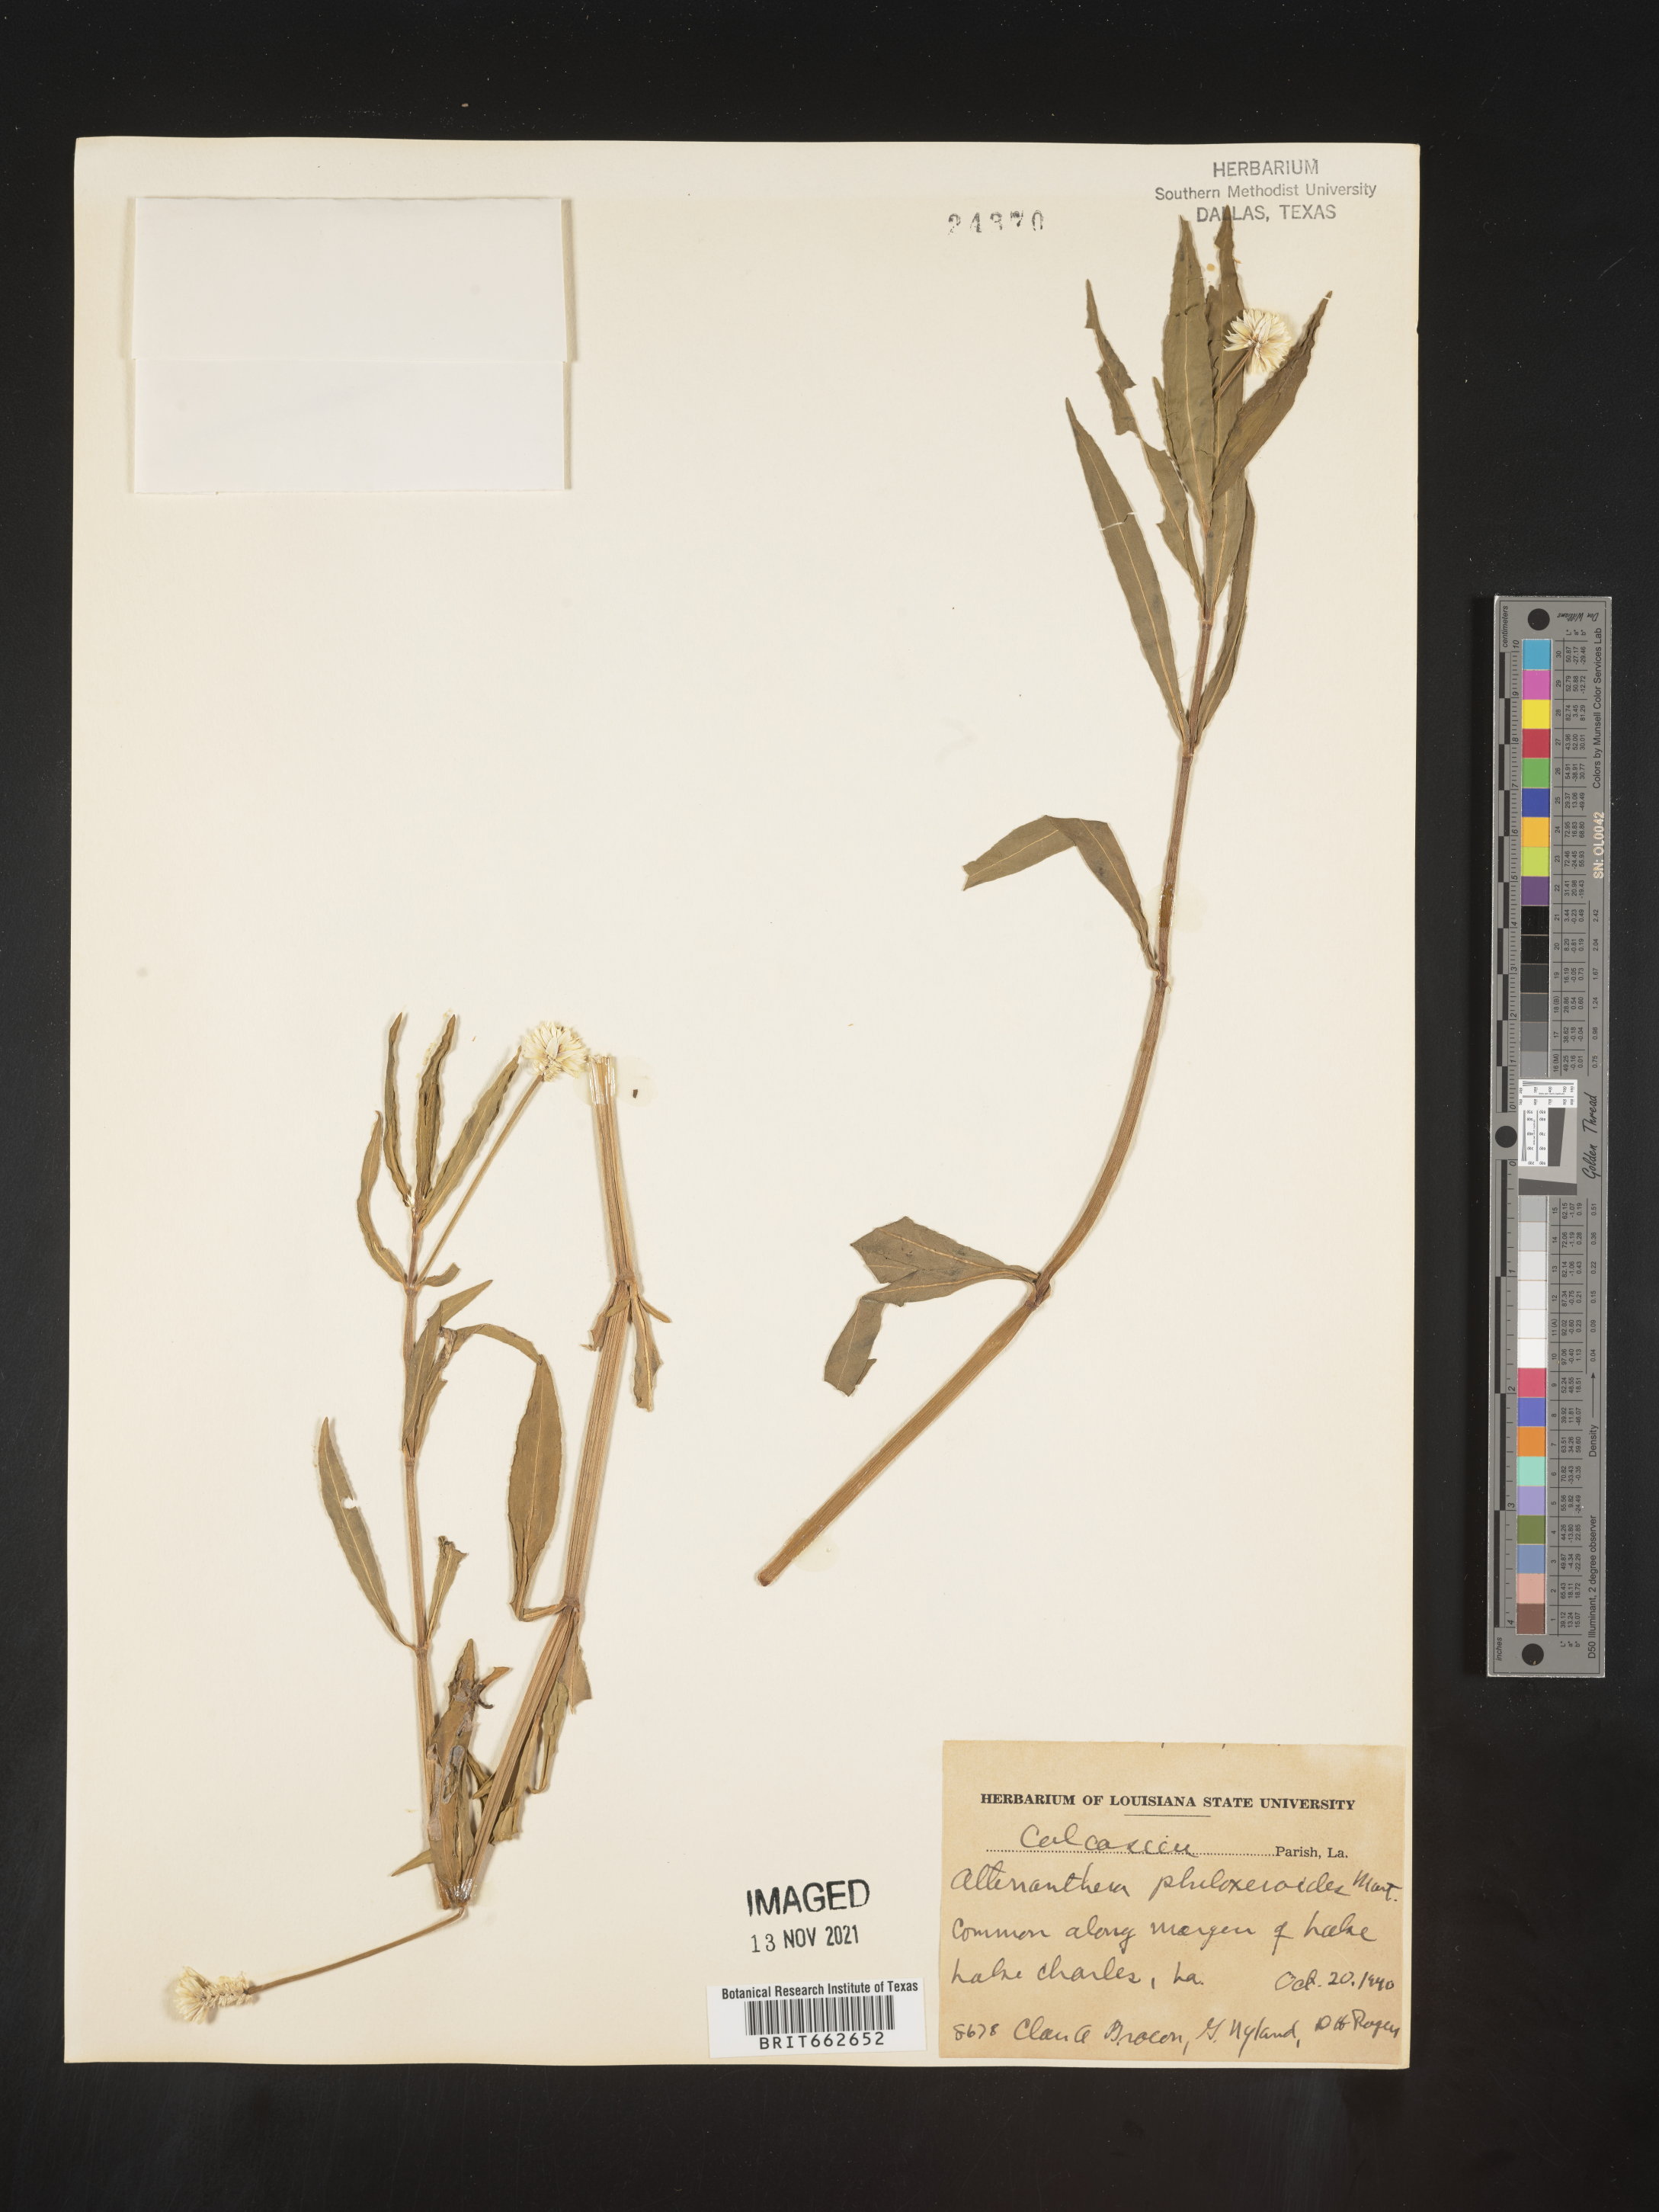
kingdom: Plantae
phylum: Tracheophyta
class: Magnoliopsida
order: Caryophyllales
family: Amaranthaceae
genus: Alternanthera
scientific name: Alternanthera philoxeroides
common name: Alligatorweed
